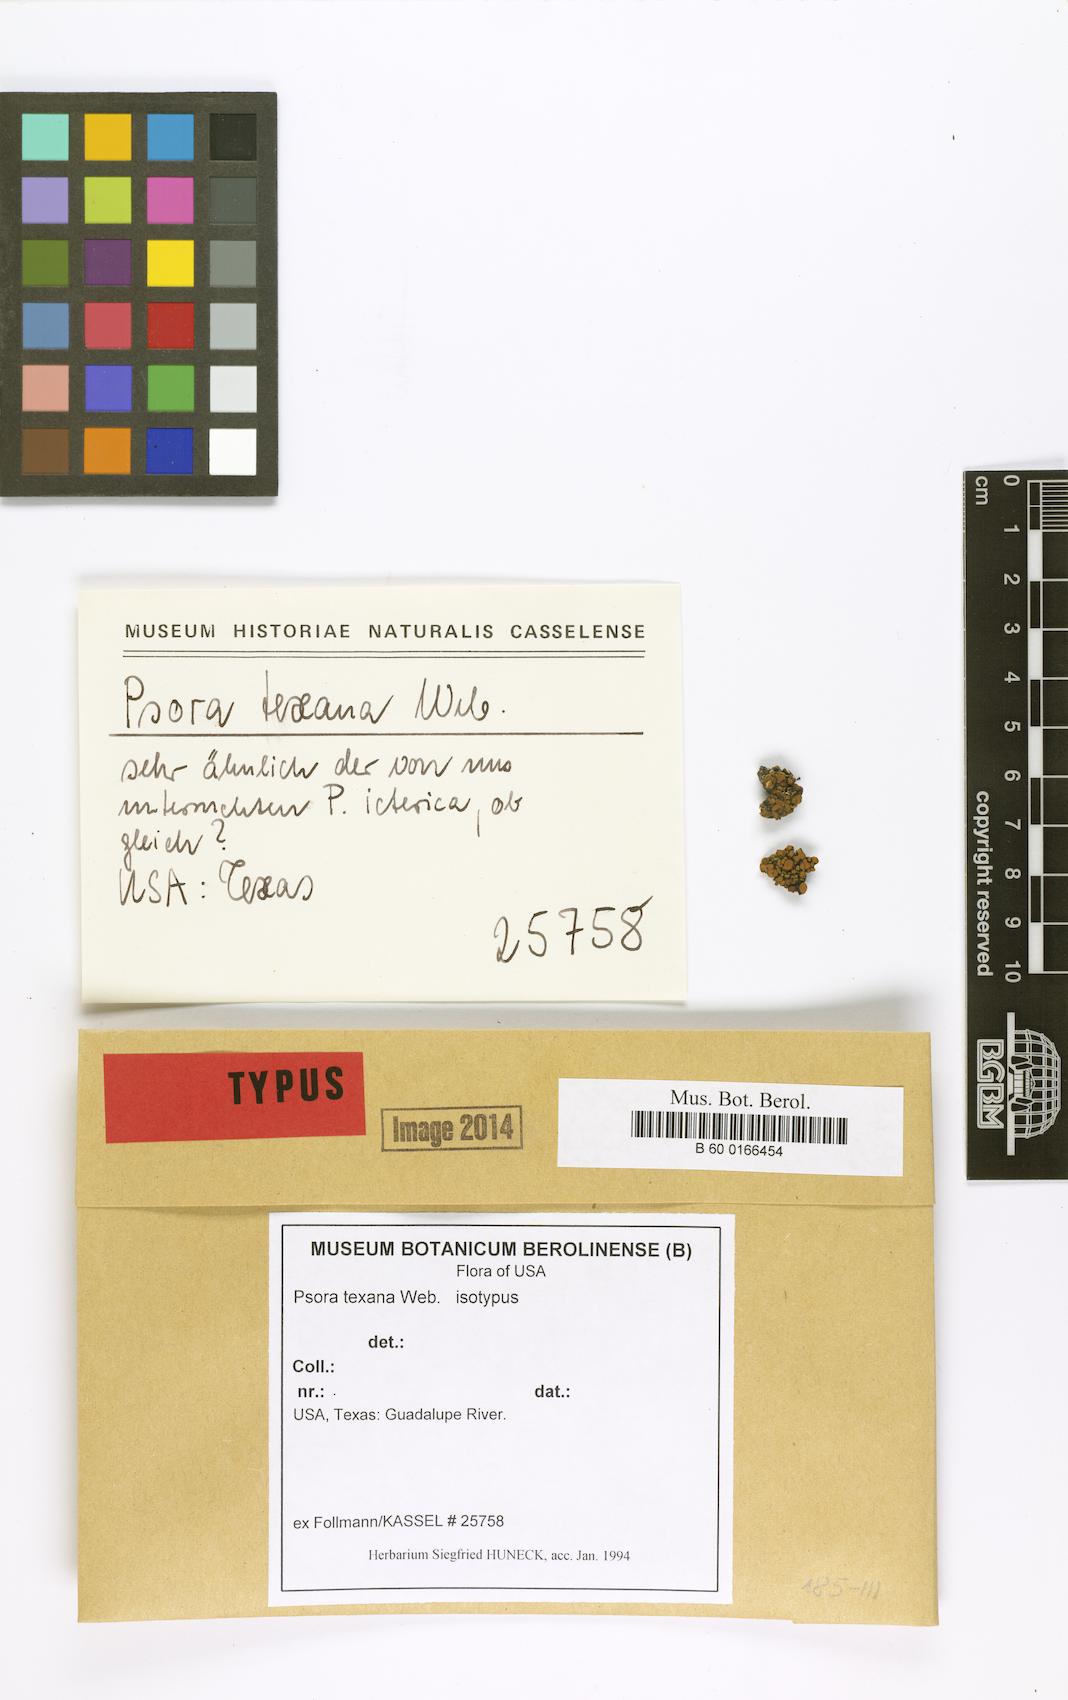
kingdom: Fungi
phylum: Ascomycota
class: Lecanoromycetes
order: Lecanorales
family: Catillariaceae
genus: Xanthopsorella
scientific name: Xanthopsorella texana
